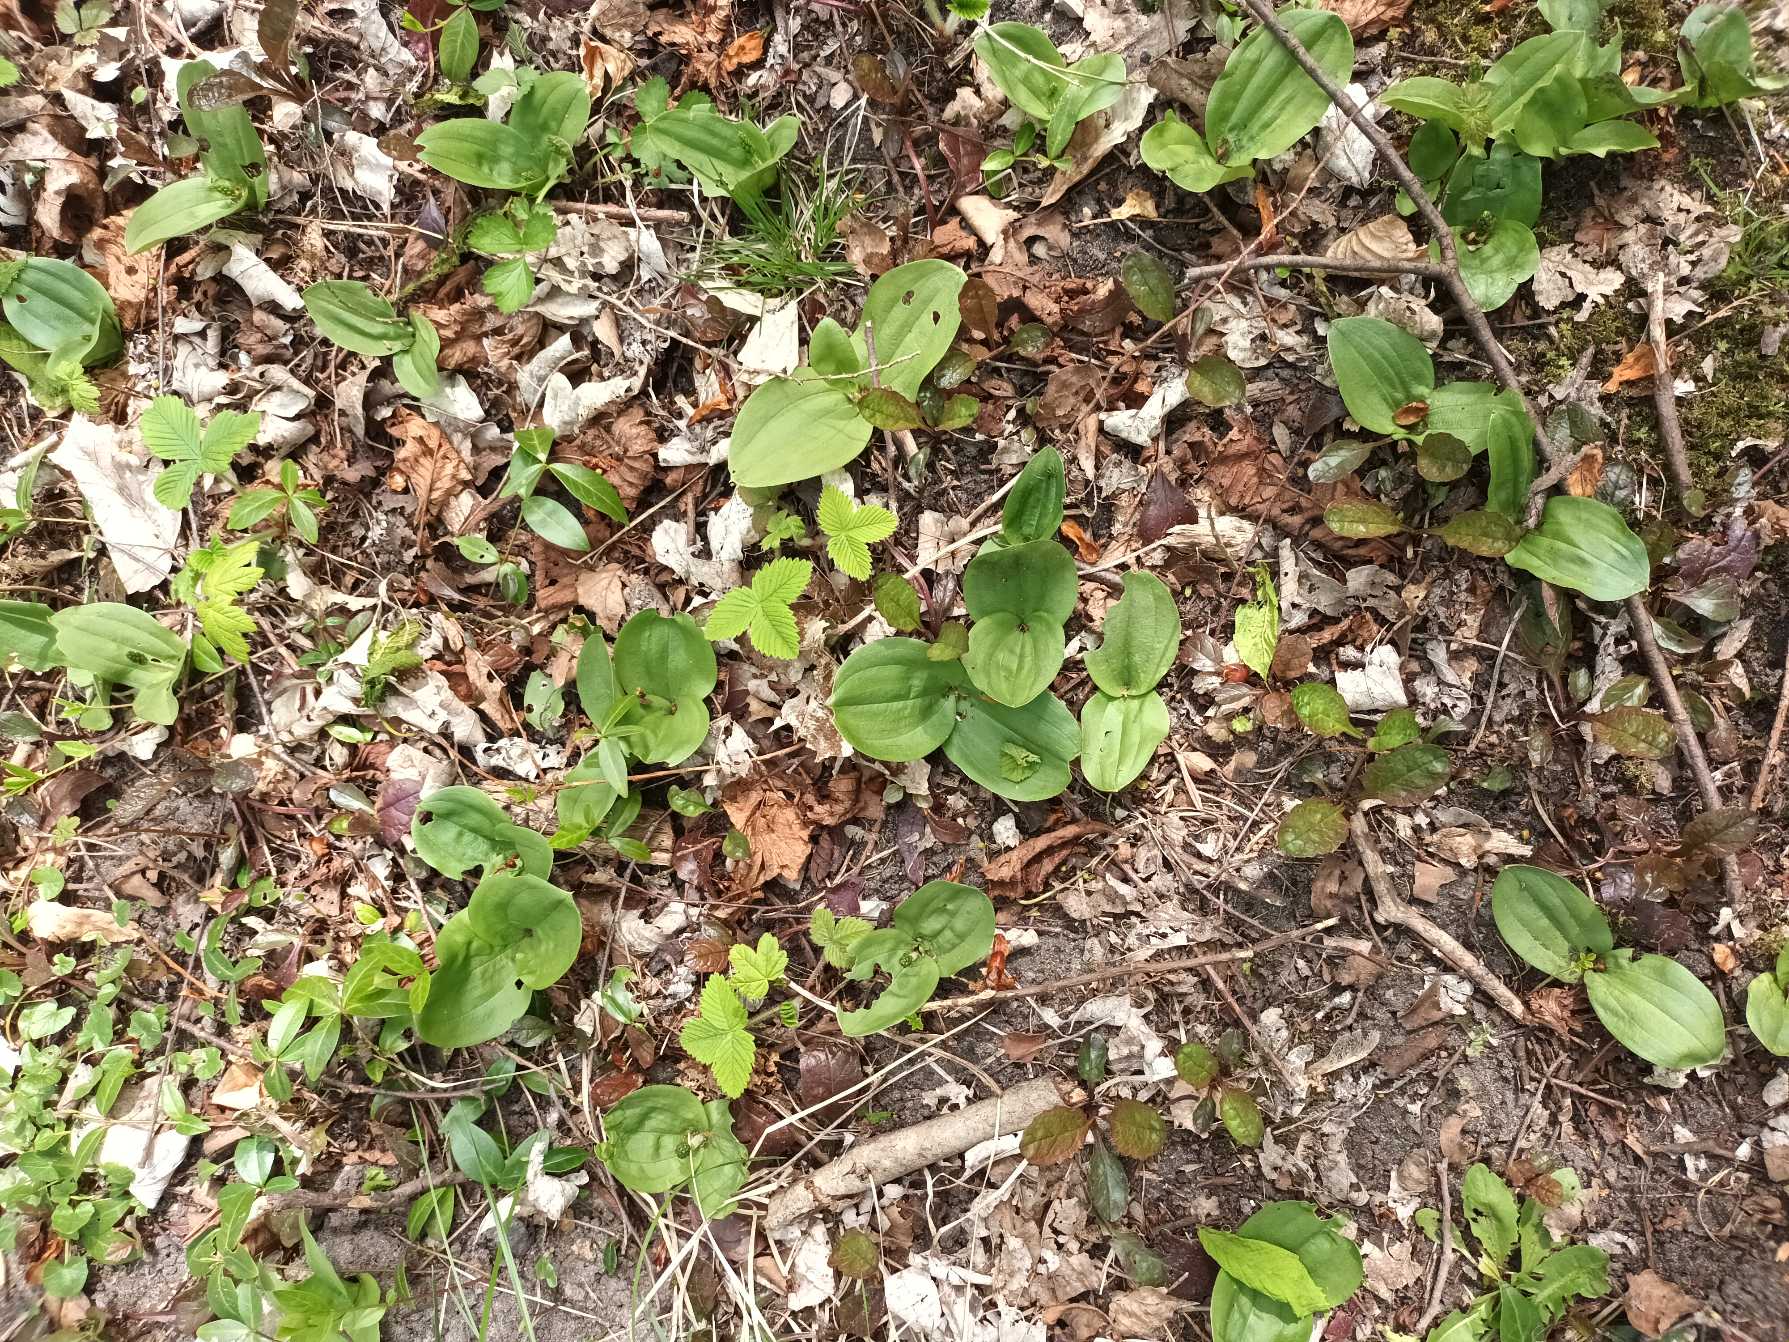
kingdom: Plantae
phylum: Tracheophyta
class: Liliopsida
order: Asparagales
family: Orchidaceae
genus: Neottia
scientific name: Neottia ovata
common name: Ægbladet fliglæbe
